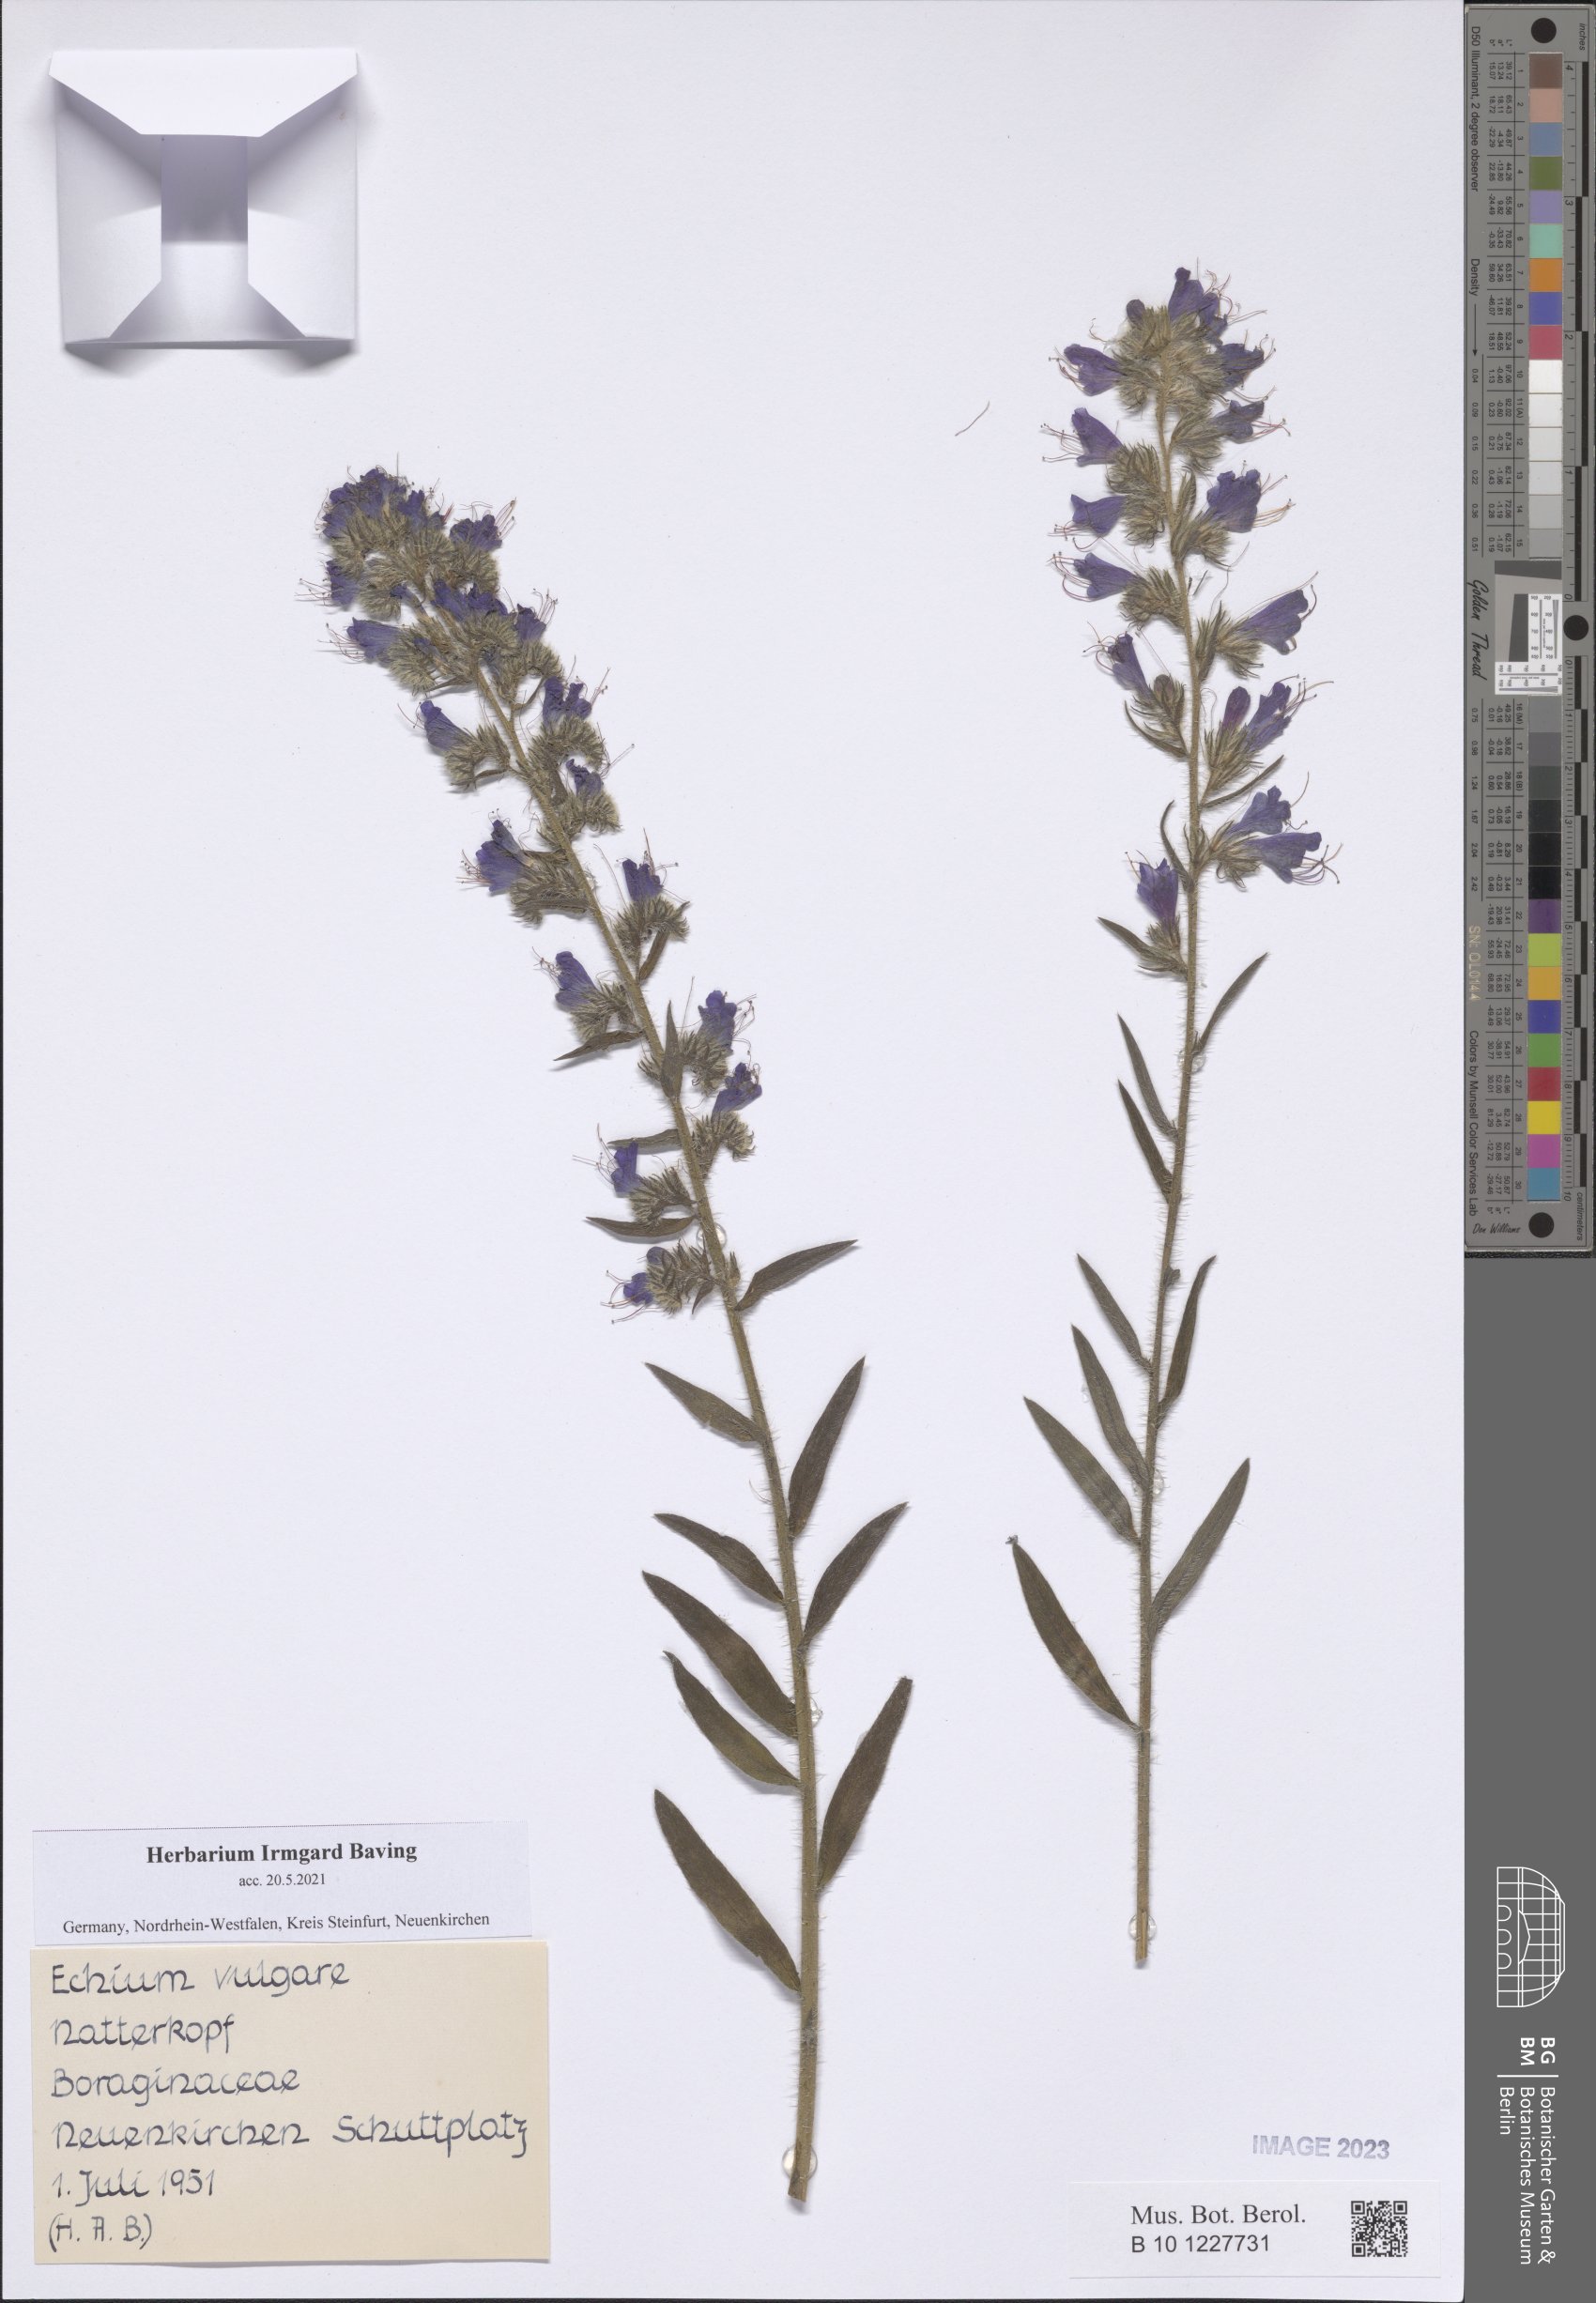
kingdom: Plantae
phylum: Tracheophyta
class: Magnoliopsida
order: Boraginales
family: Boraginaceae
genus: Echium
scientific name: Echium vulgare
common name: Common viper's bugloss
